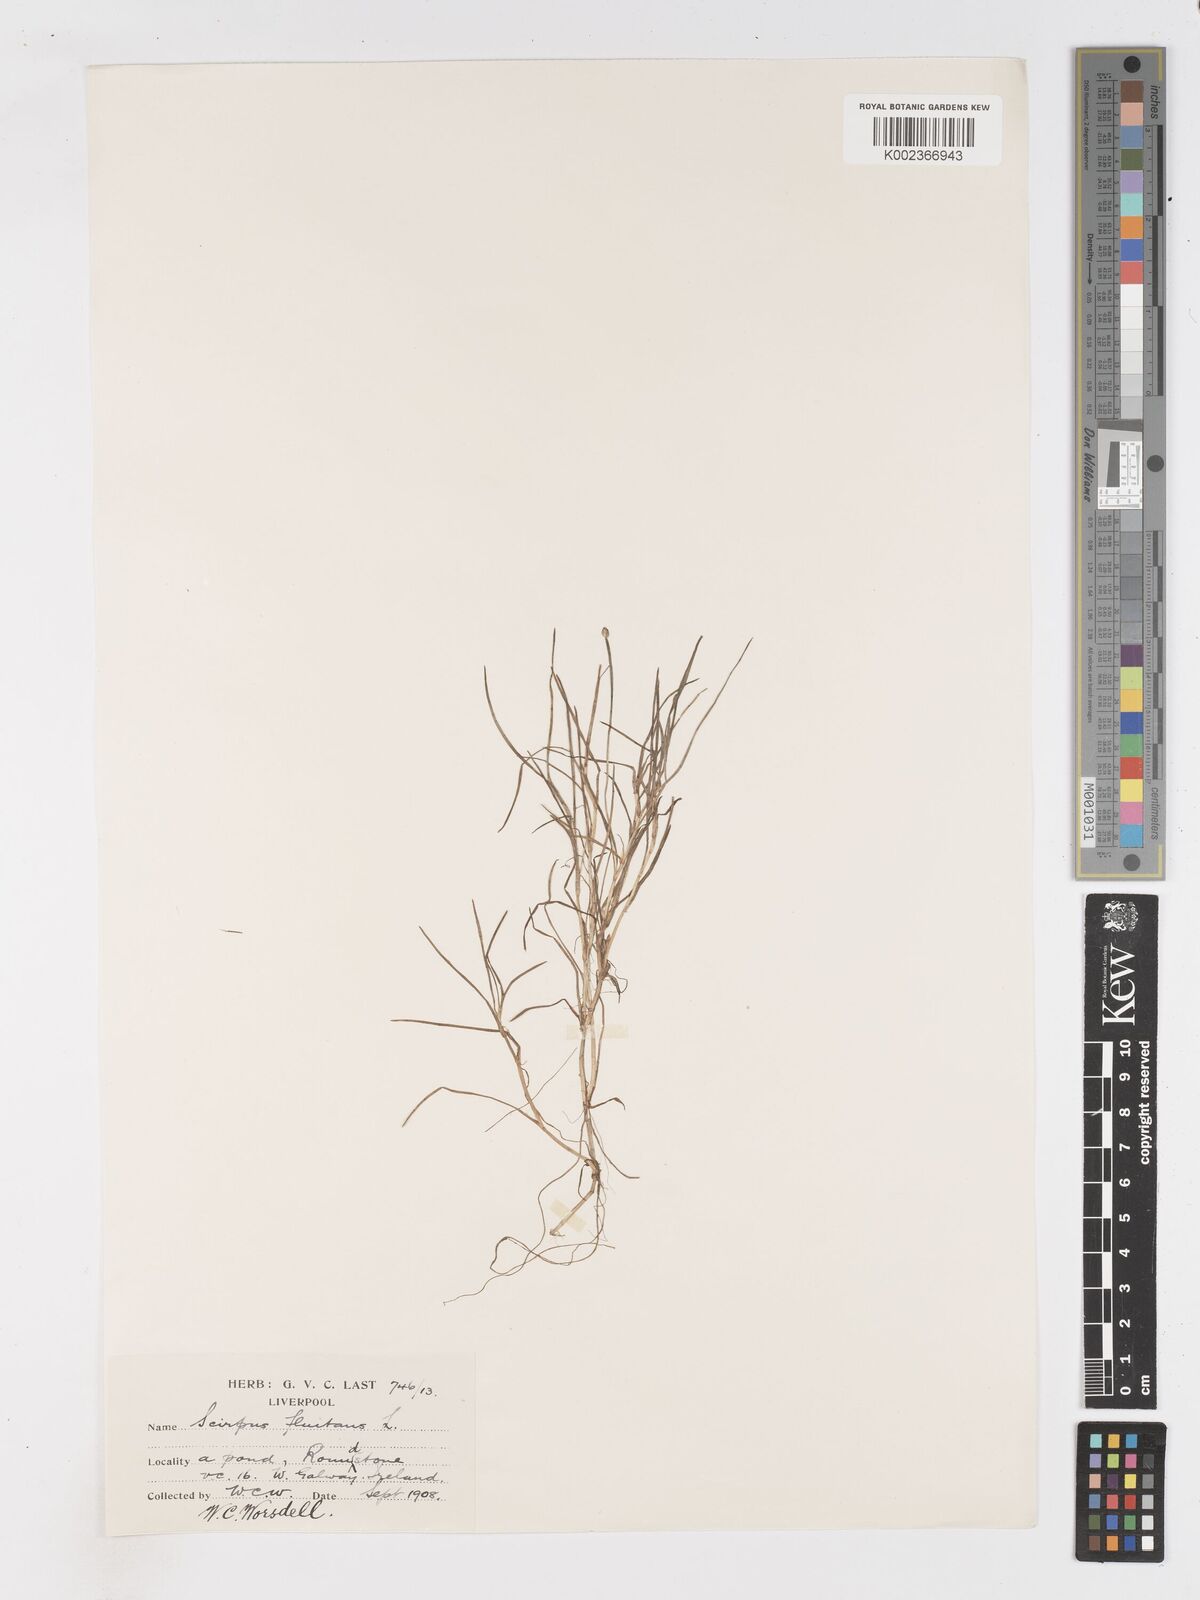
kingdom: Plantae
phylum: Tracheophyta
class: Liliopsida
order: Poales
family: Cyperaceae
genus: Isolepis
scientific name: Isolepis fluitans
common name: Floating club-rush
